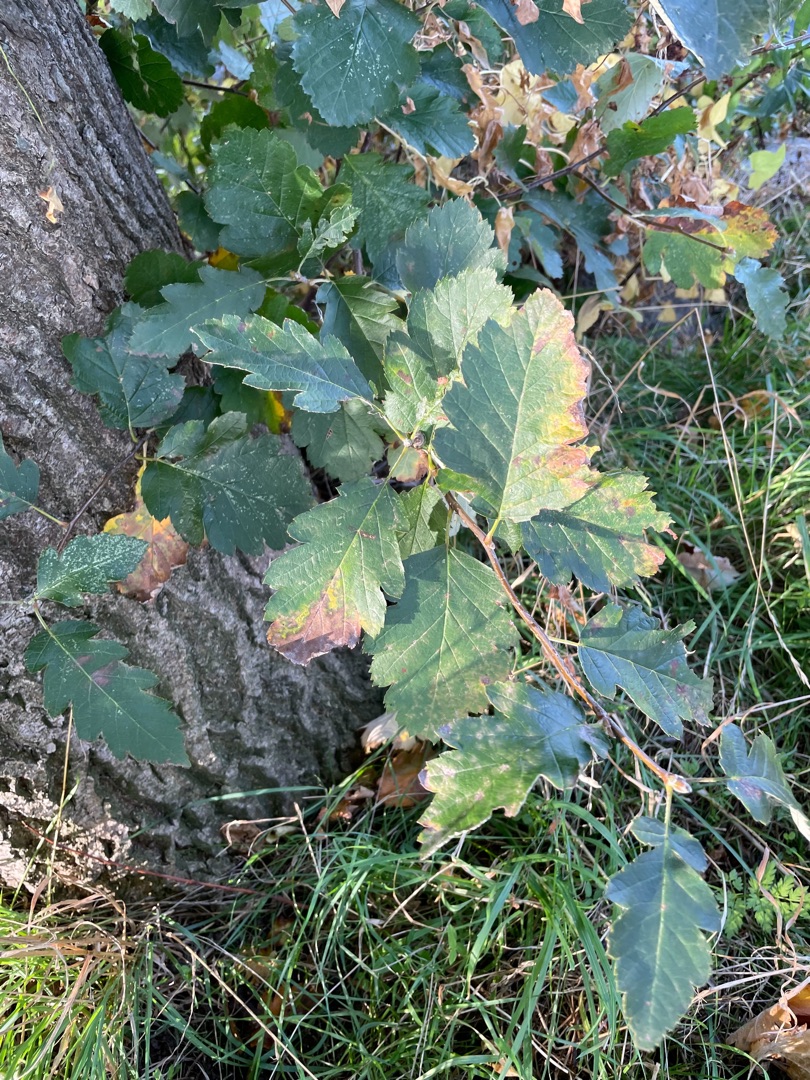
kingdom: Plantae
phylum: Tracheophyta
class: Magnoliopsida
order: Rosales
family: Rosaceae
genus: Scandosorbus
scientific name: Scandosorbus intermedia
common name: Selje-røn
